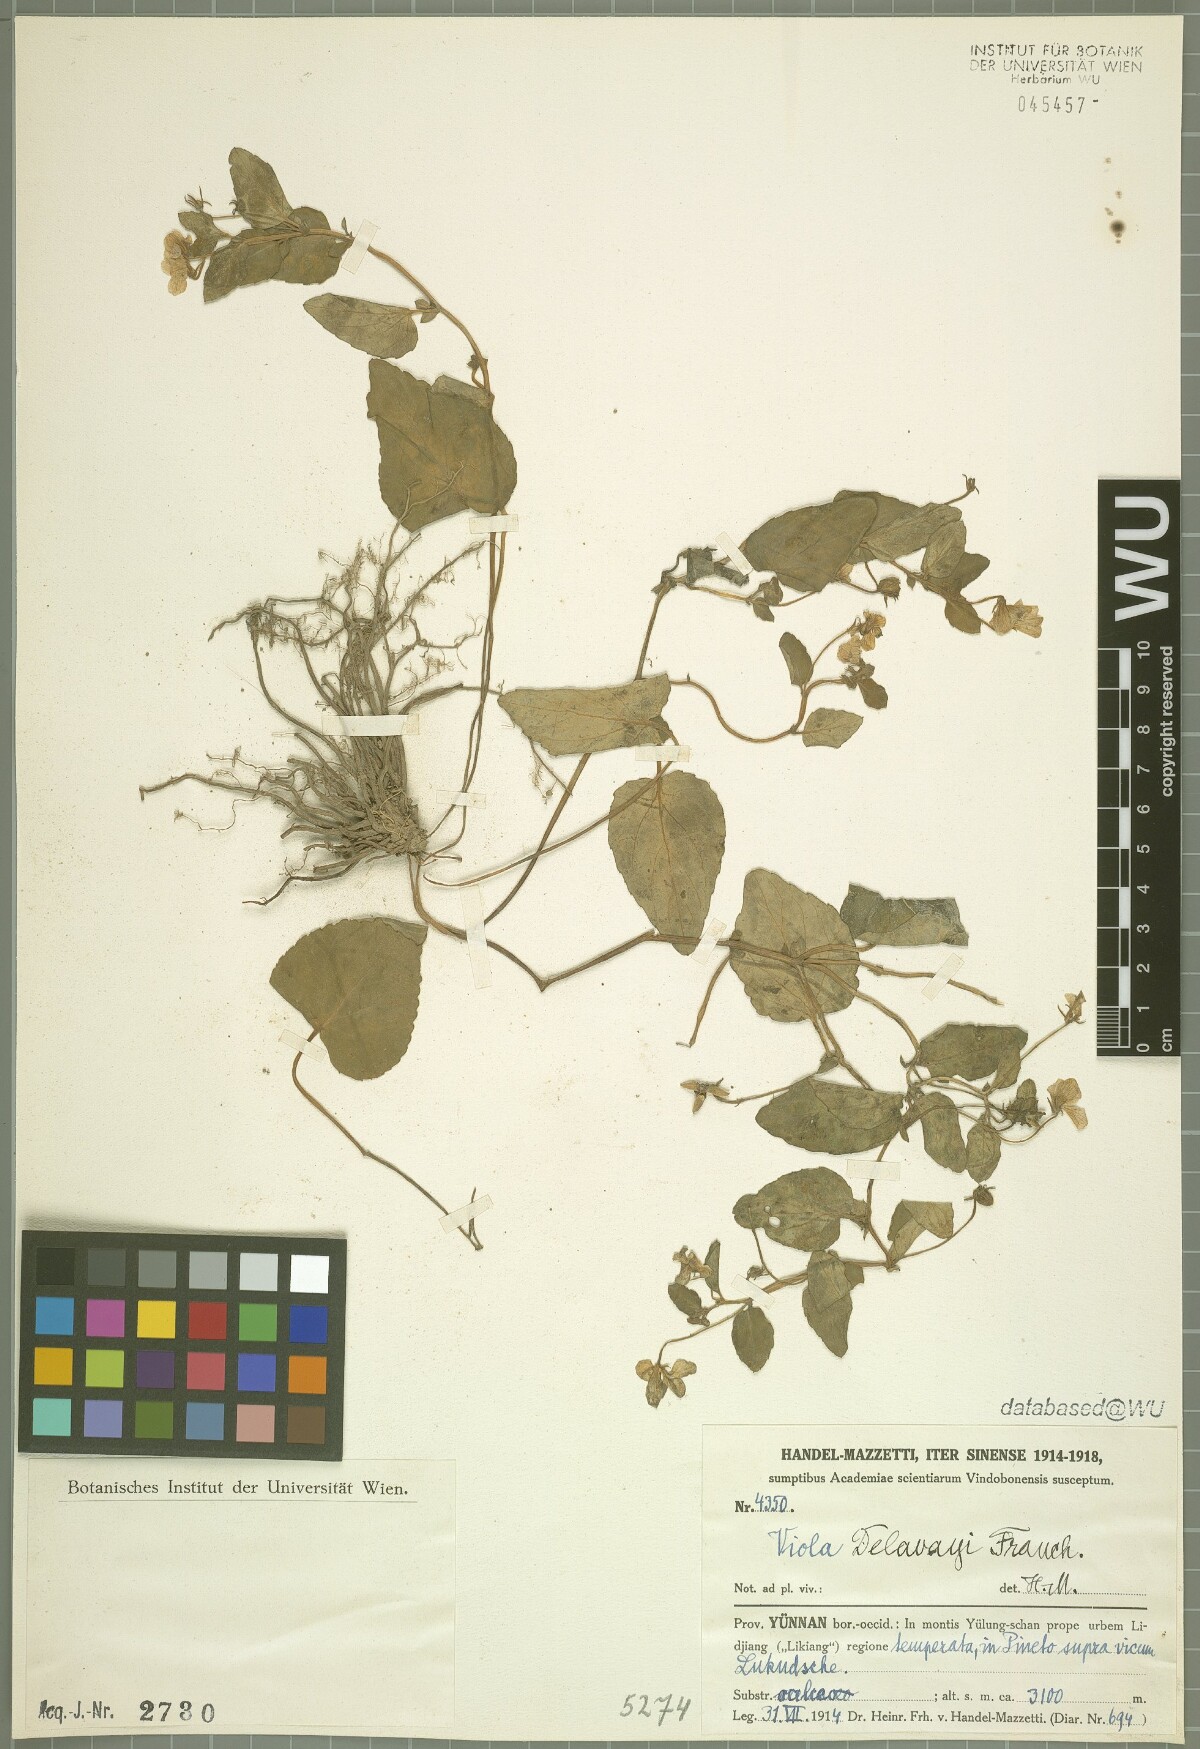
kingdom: Plantae
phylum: Tracheophyta
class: Magnoliopsida
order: Malpighiales
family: Violaceae
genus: Viola
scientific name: Viola delavayi
